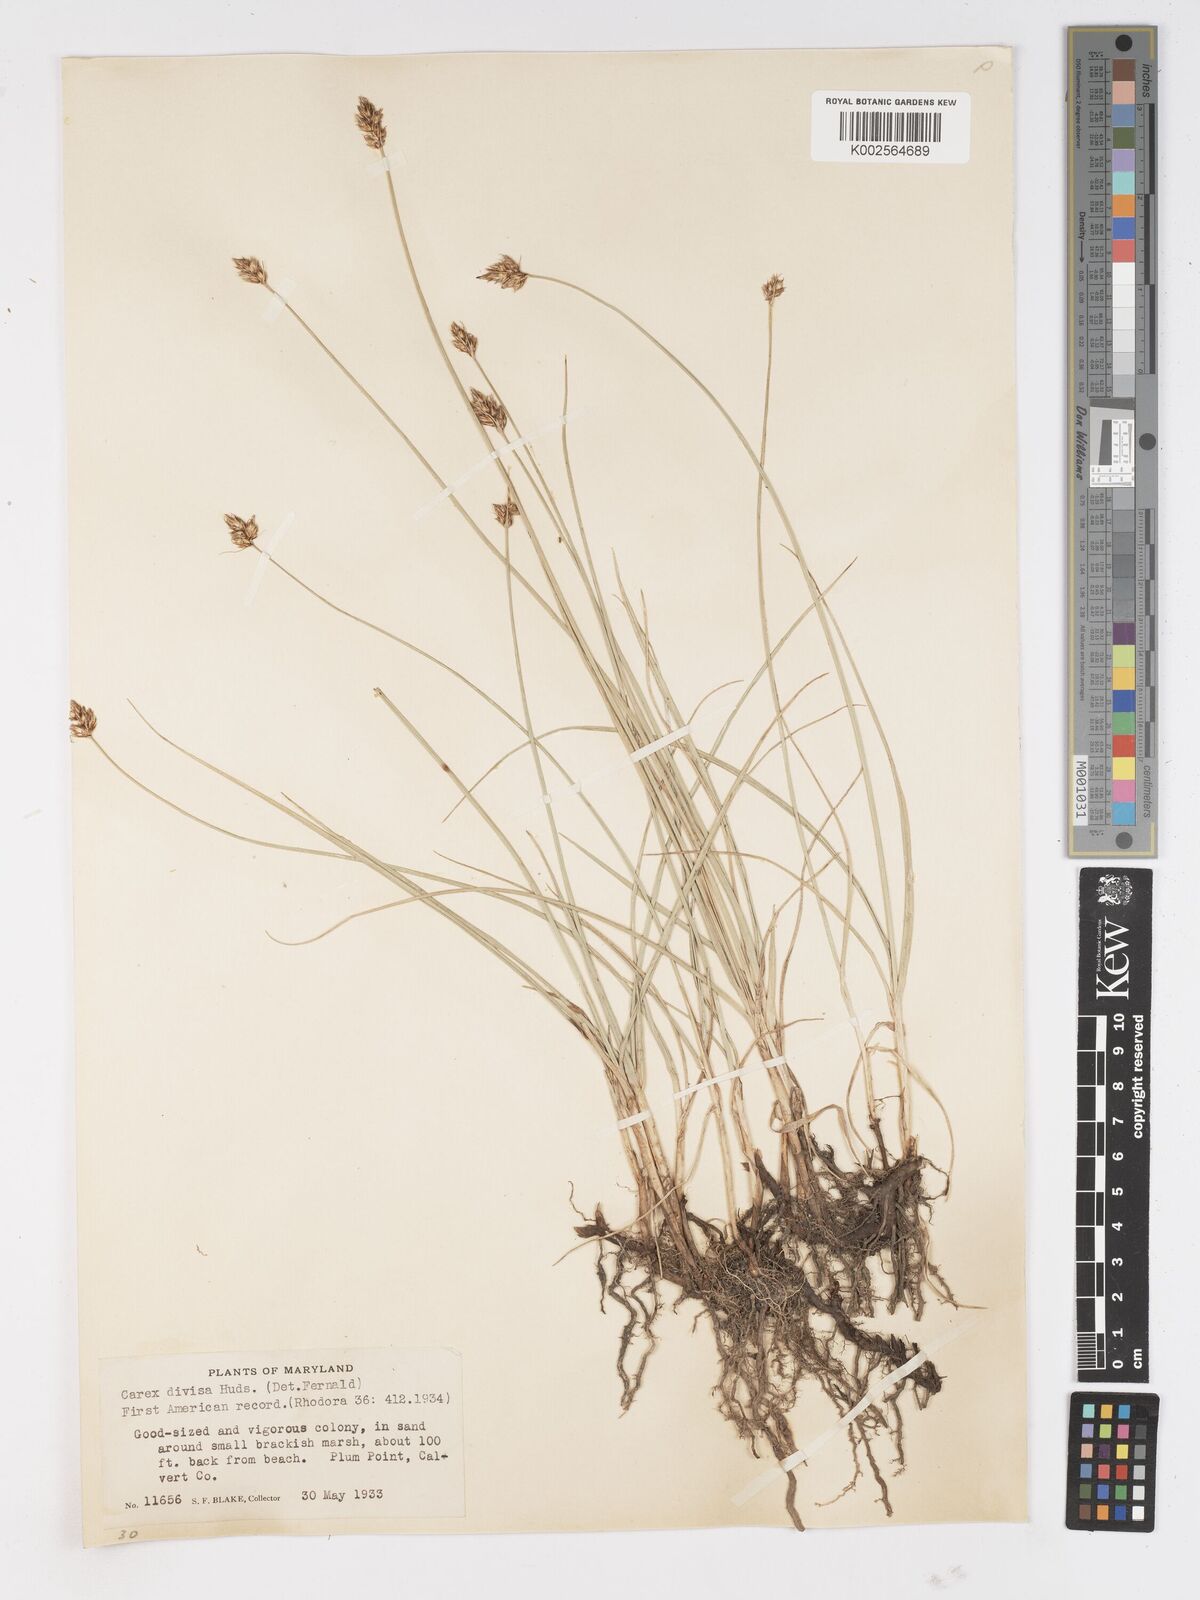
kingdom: Plantae
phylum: Tracheophyta
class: Liliopsida
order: Poales
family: Cyperaceae
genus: Carex
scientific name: Carex divisa
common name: Divided sedge
